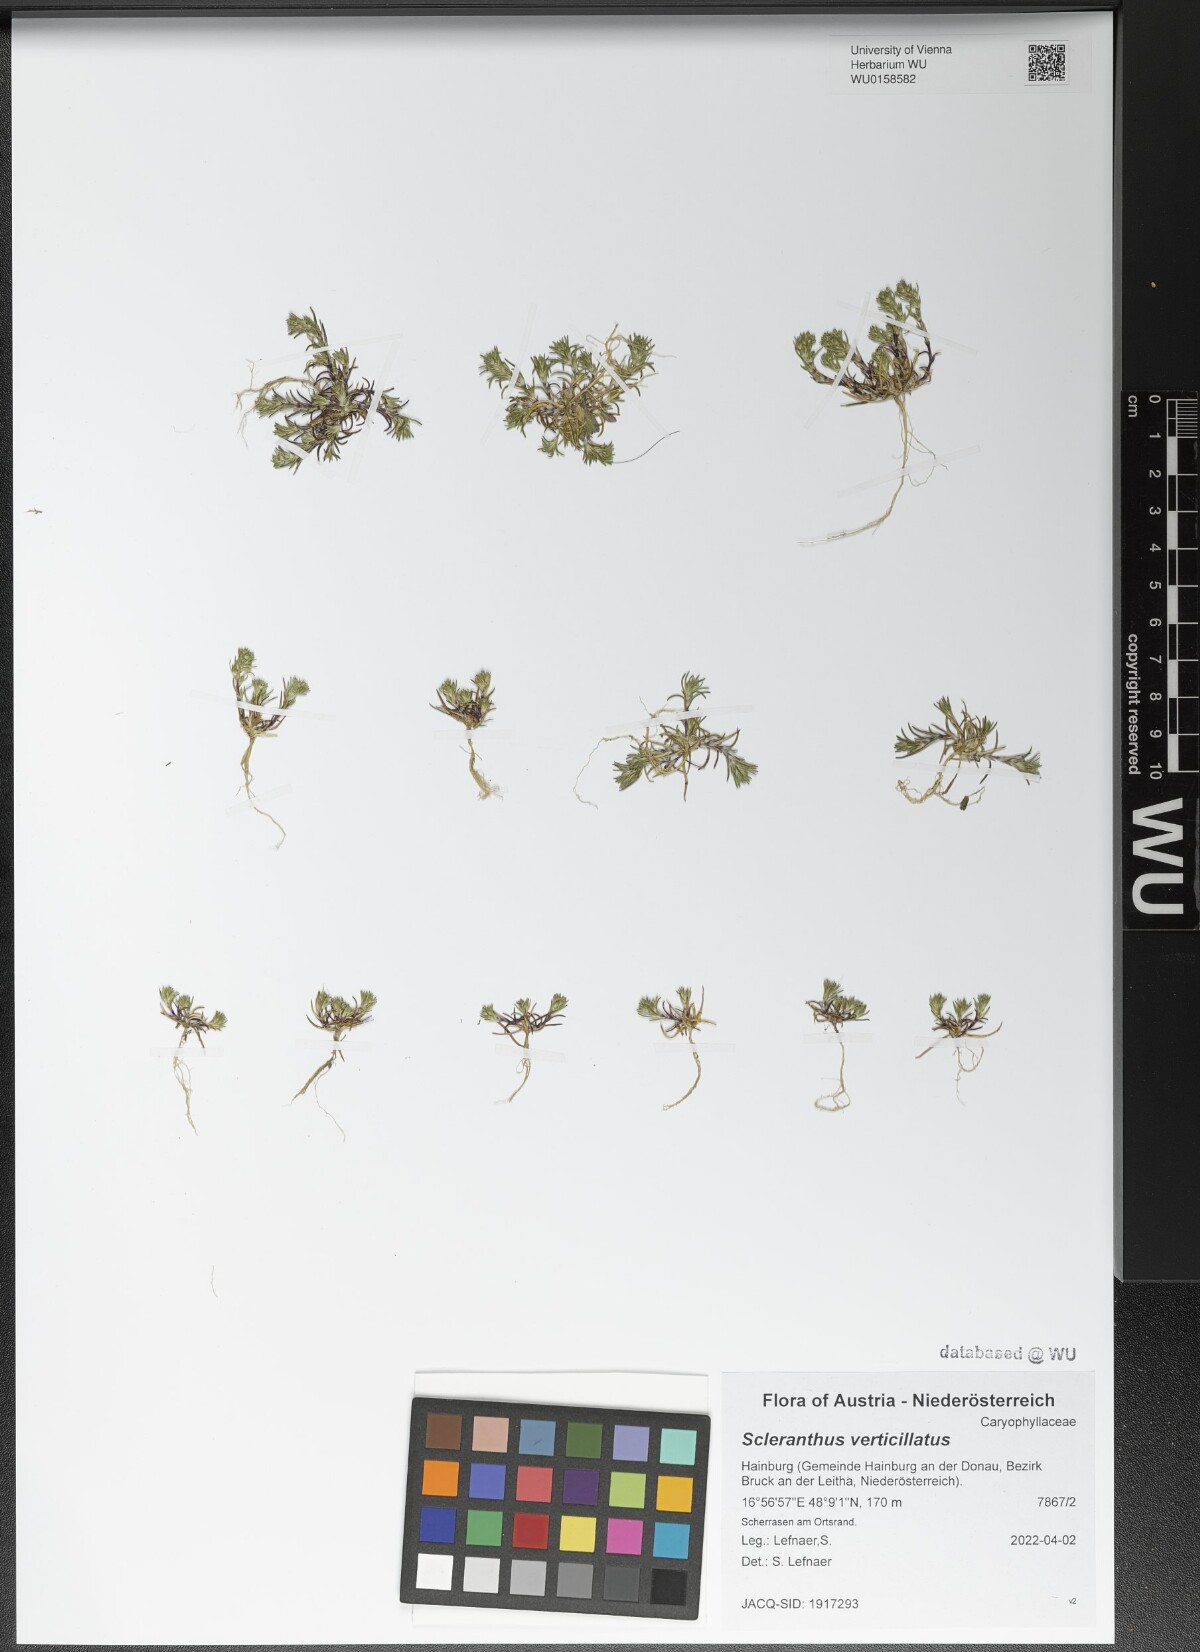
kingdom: Plantae
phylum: Tracheophyta
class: Magnoliopsida
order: Caryophyllales
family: Caryophyllaceae
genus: Scleranthus
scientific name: Scleranthus verticillatus
